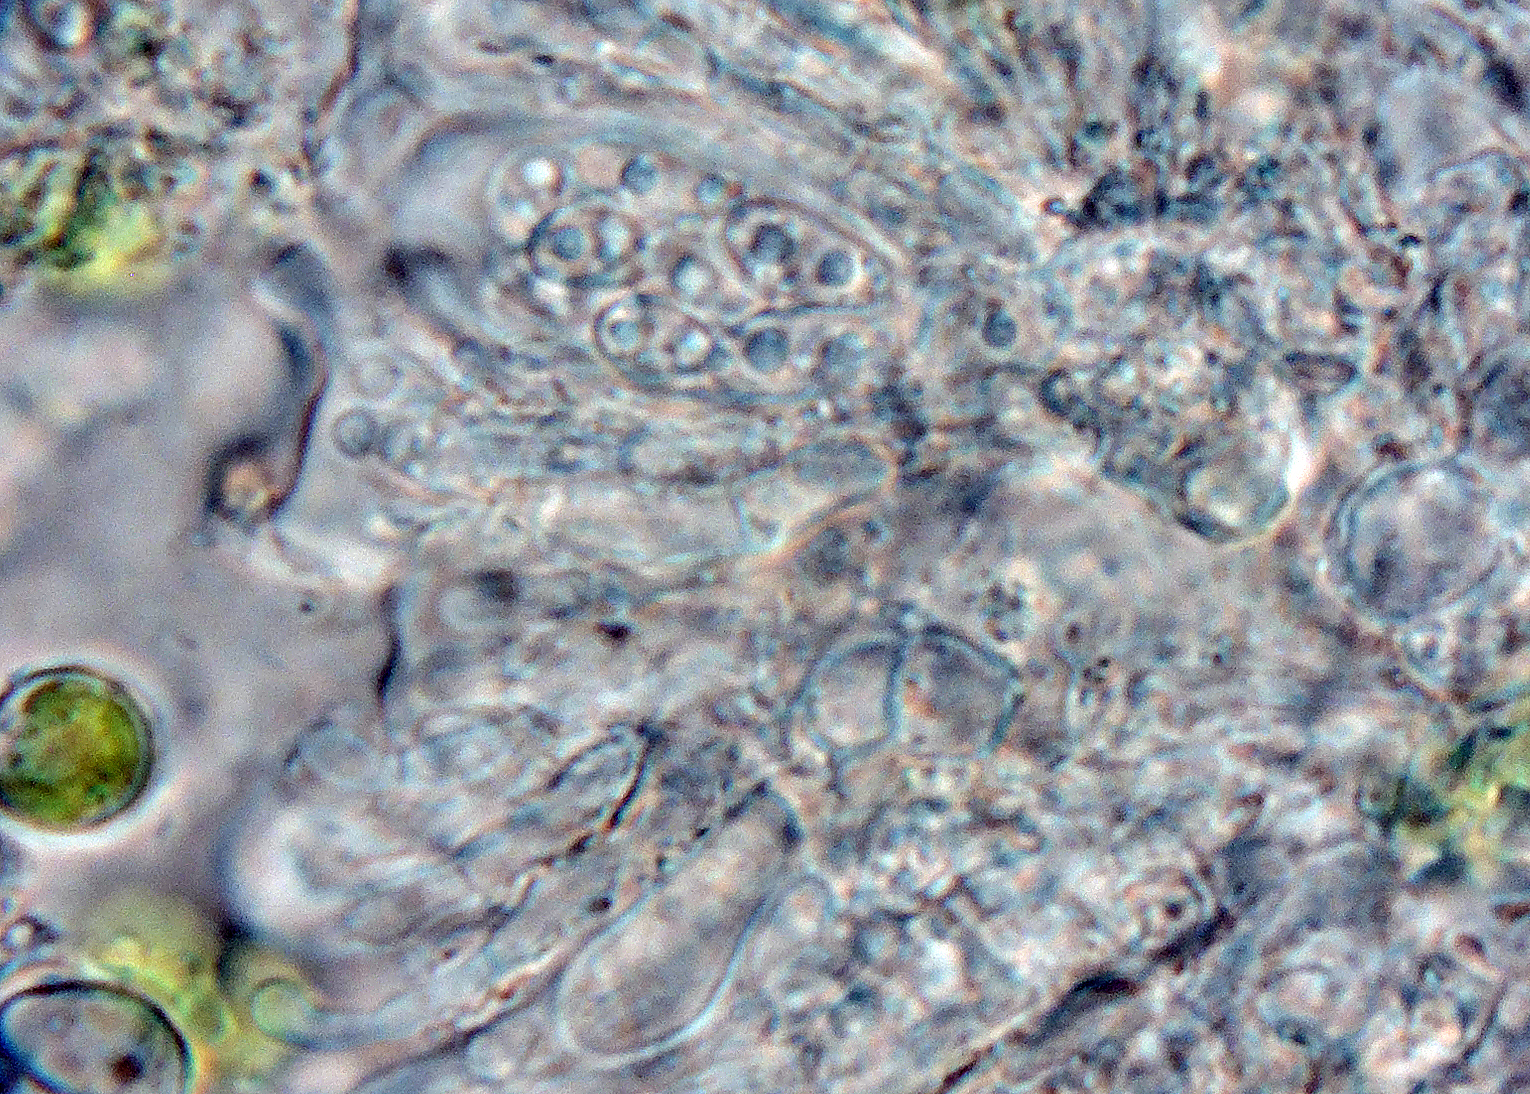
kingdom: Fungi
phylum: Ascomycota
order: Vezdaeales
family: Vezdaeaceae
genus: Vezdaea
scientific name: Vezdaea
